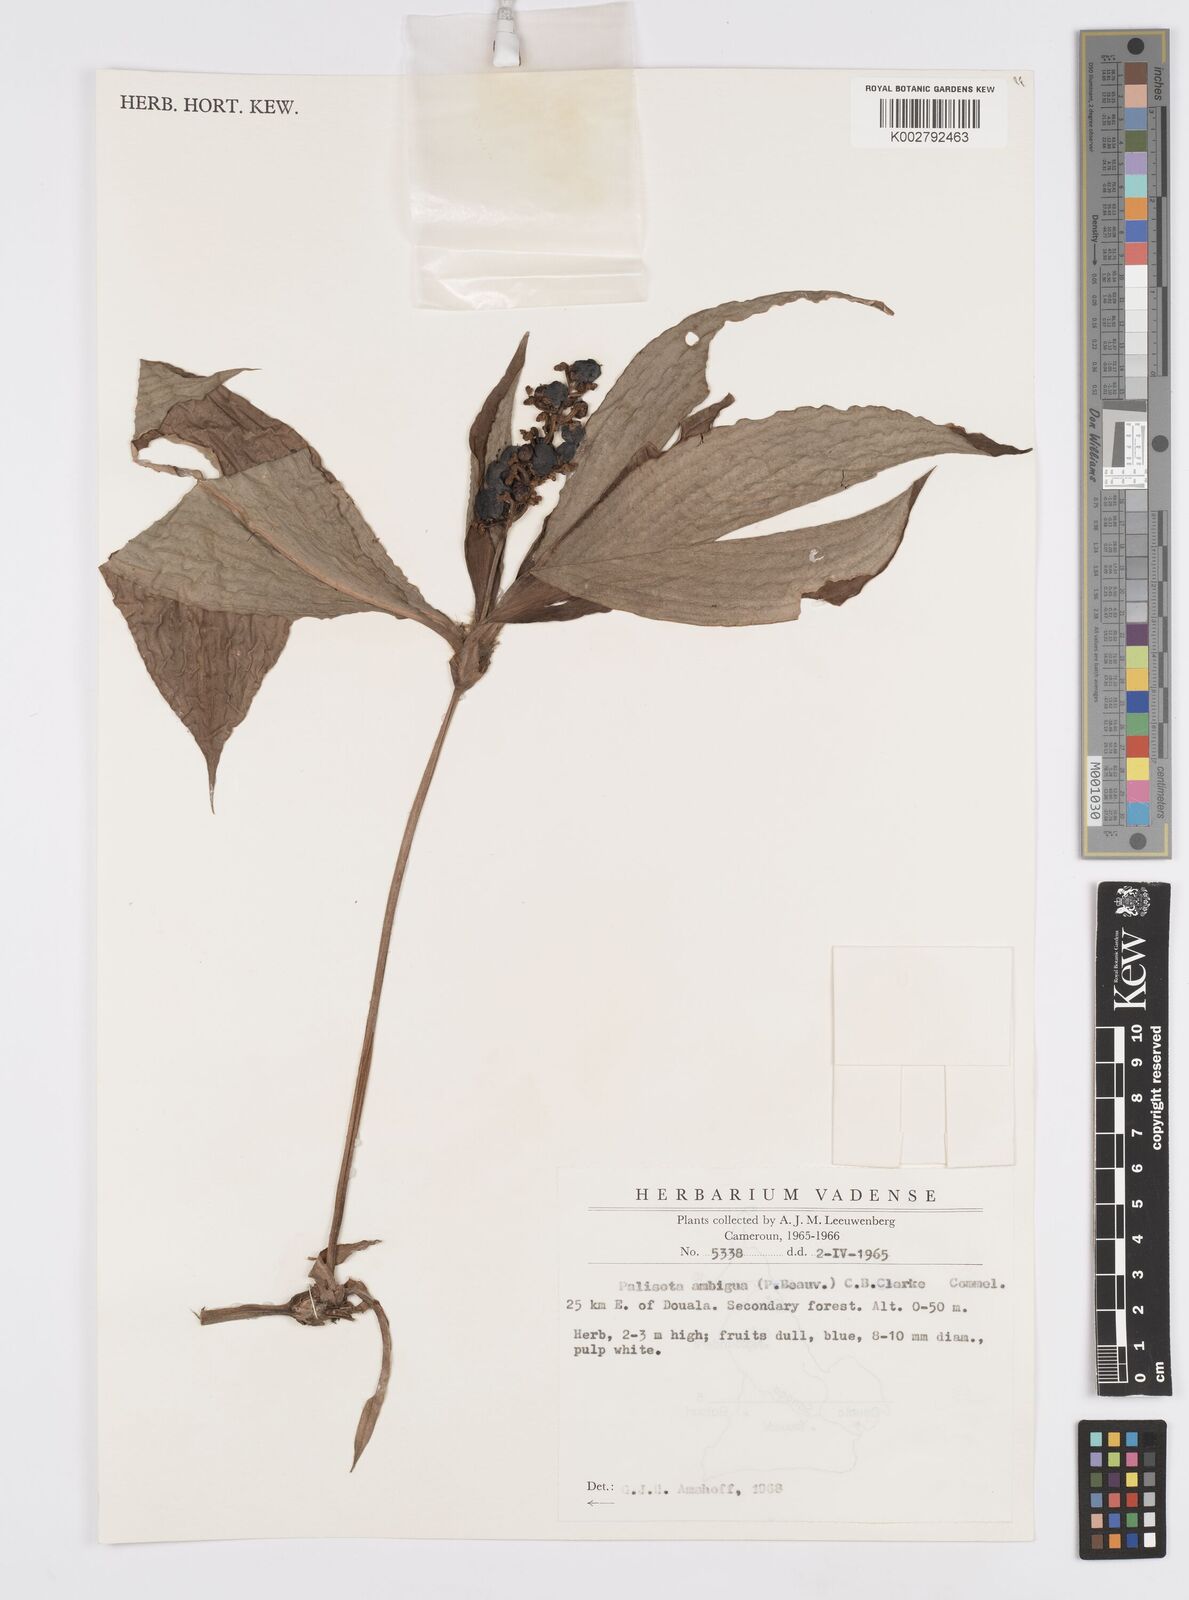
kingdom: Plantae
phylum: Tracheophyta
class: Liliopsida
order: Commelinales
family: Commelinaceae
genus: Palisota
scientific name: Palisota ambigua
